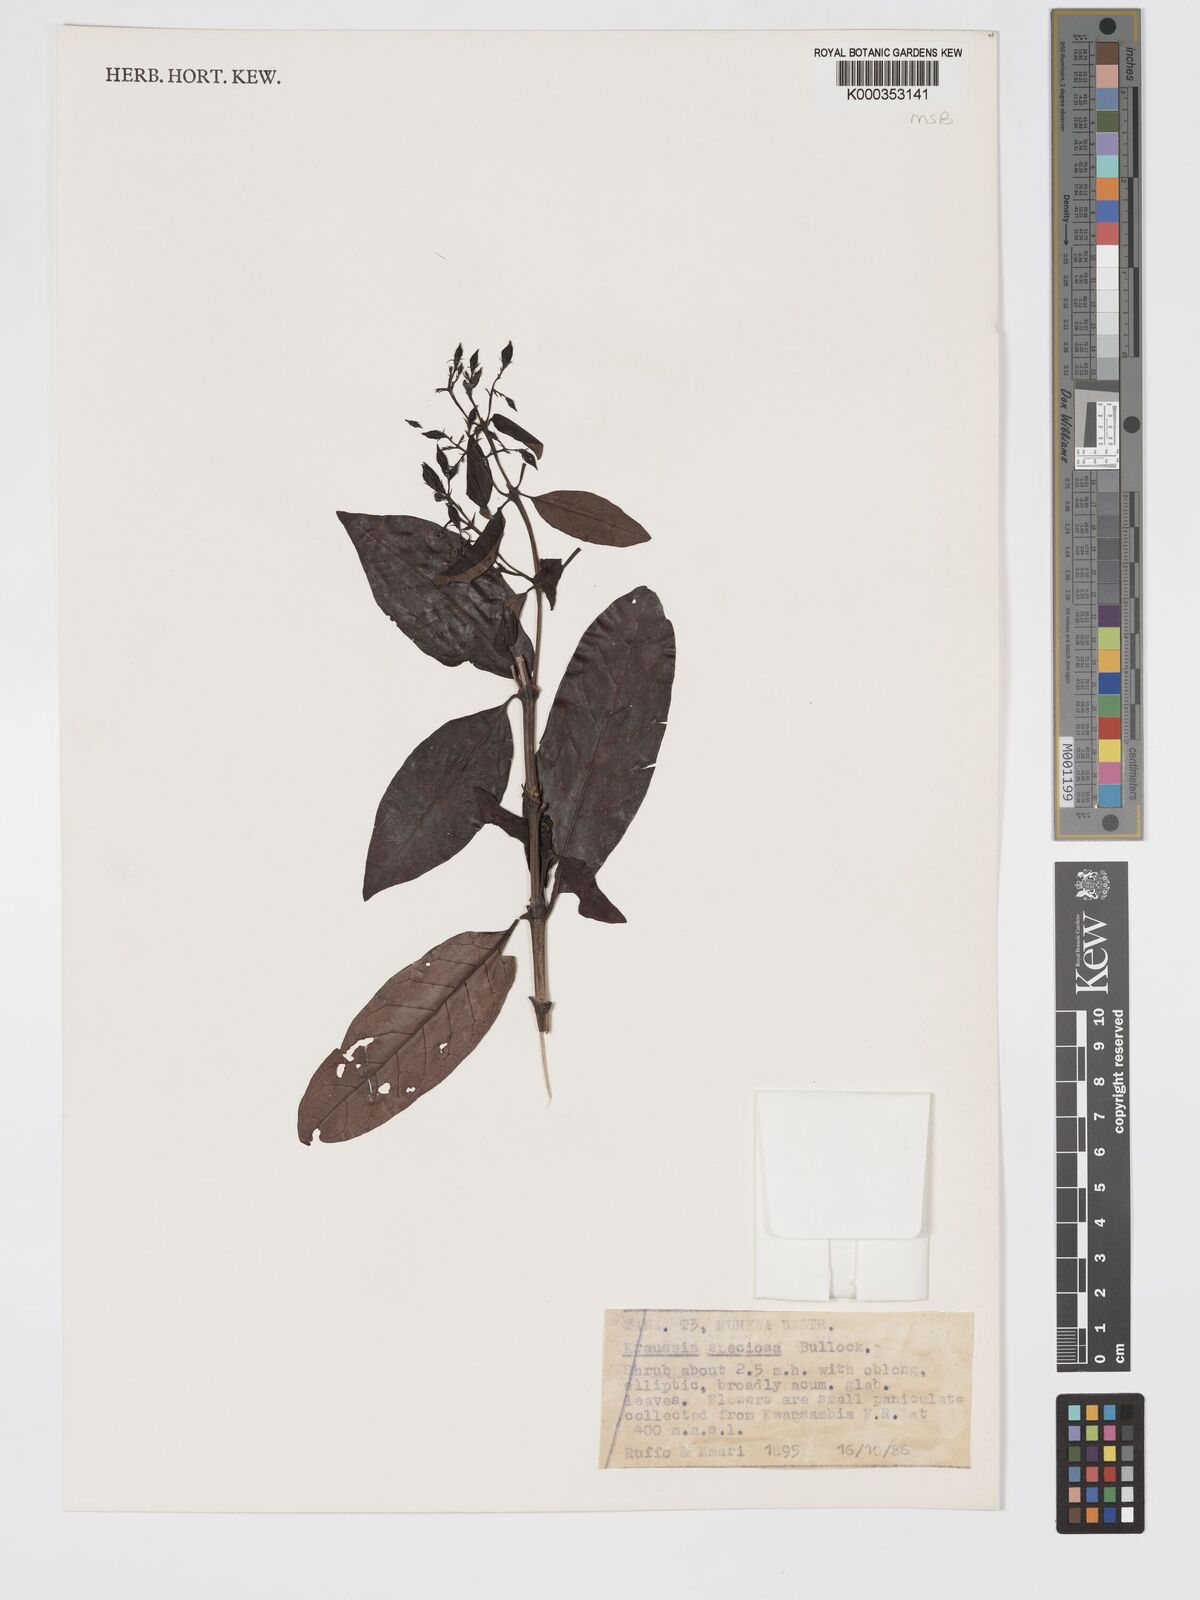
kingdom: Plantae
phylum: Tracheophyta
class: Magnoliopsida
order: Gentianales
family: Rubiaceae
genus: Kraussia
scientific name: Kraussia speciosa
